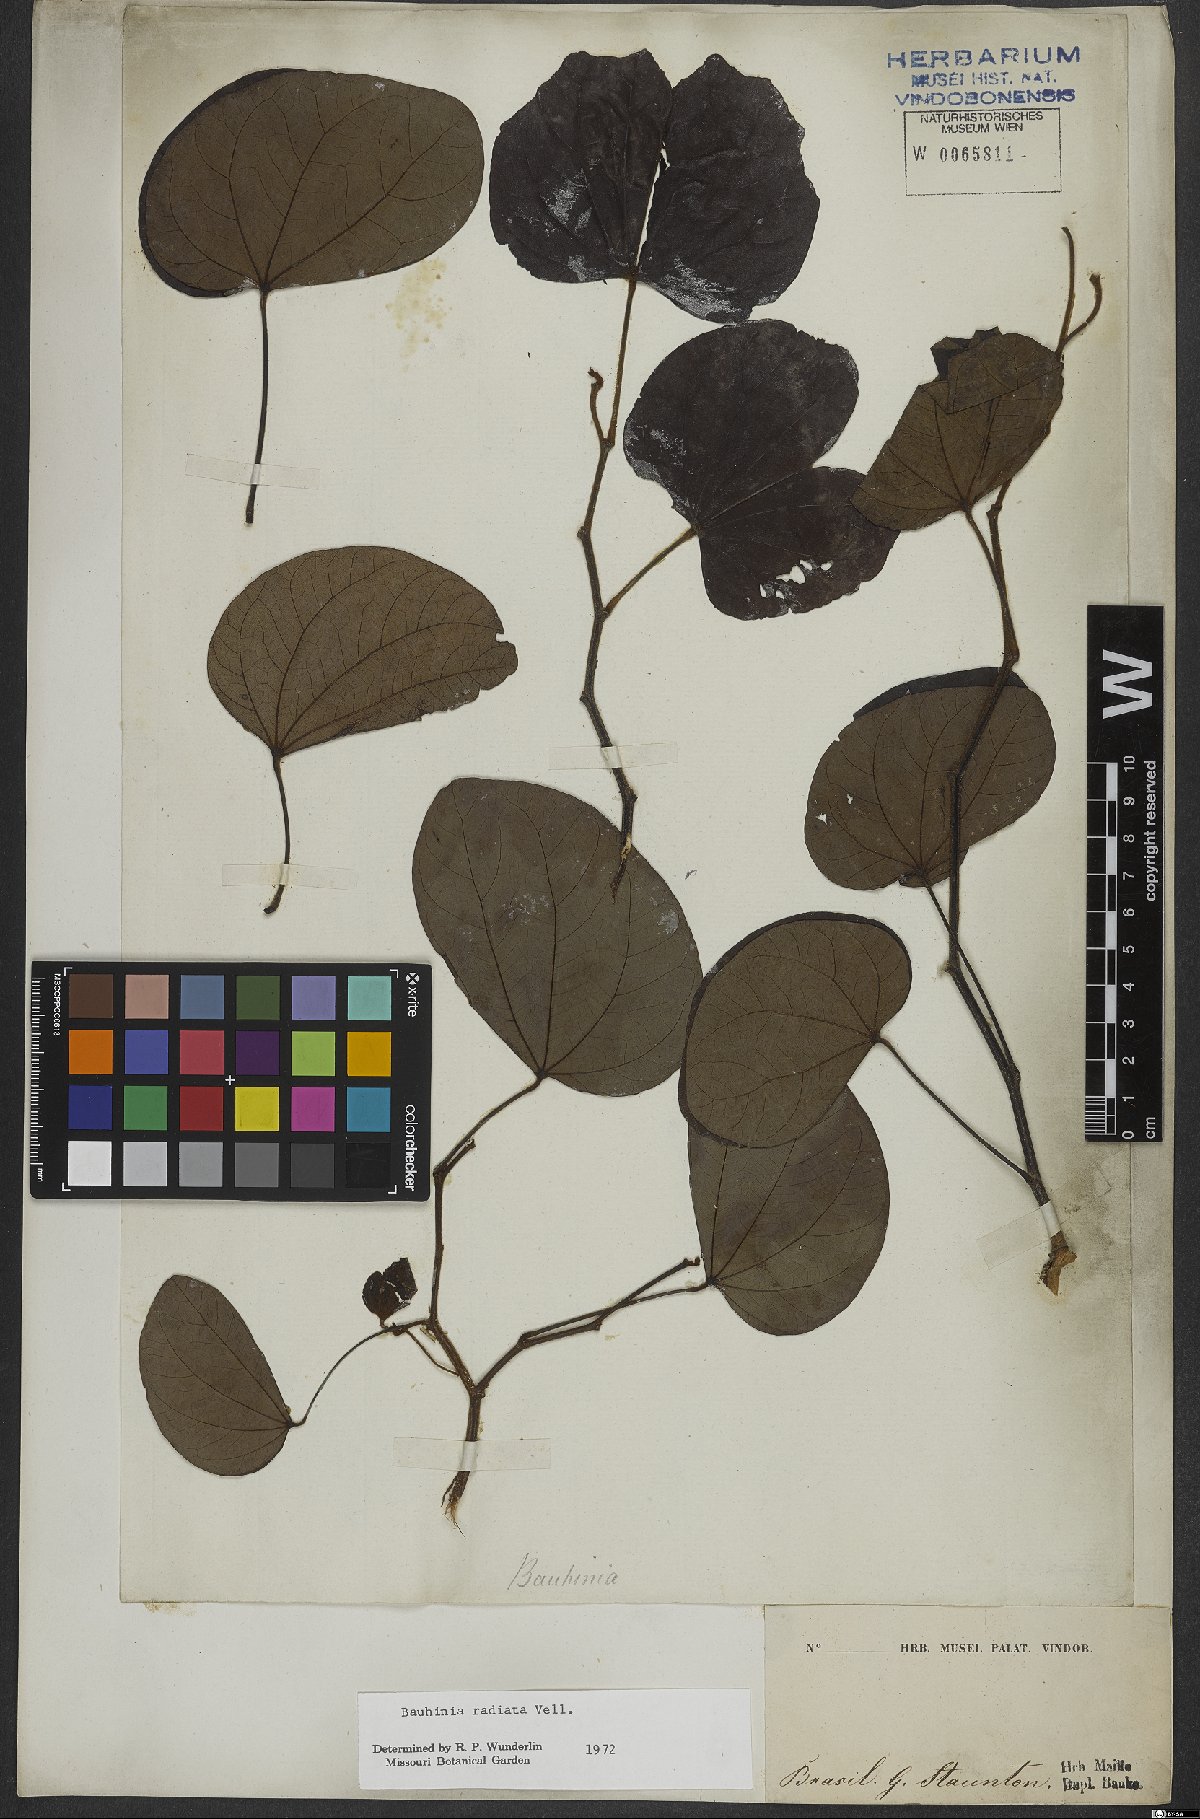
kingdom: Plantae
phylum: Tracheophyta
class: Magnoliopsida
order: Fabales
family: Fabaceae
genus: Schnella
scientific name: Schnella macrostachya
